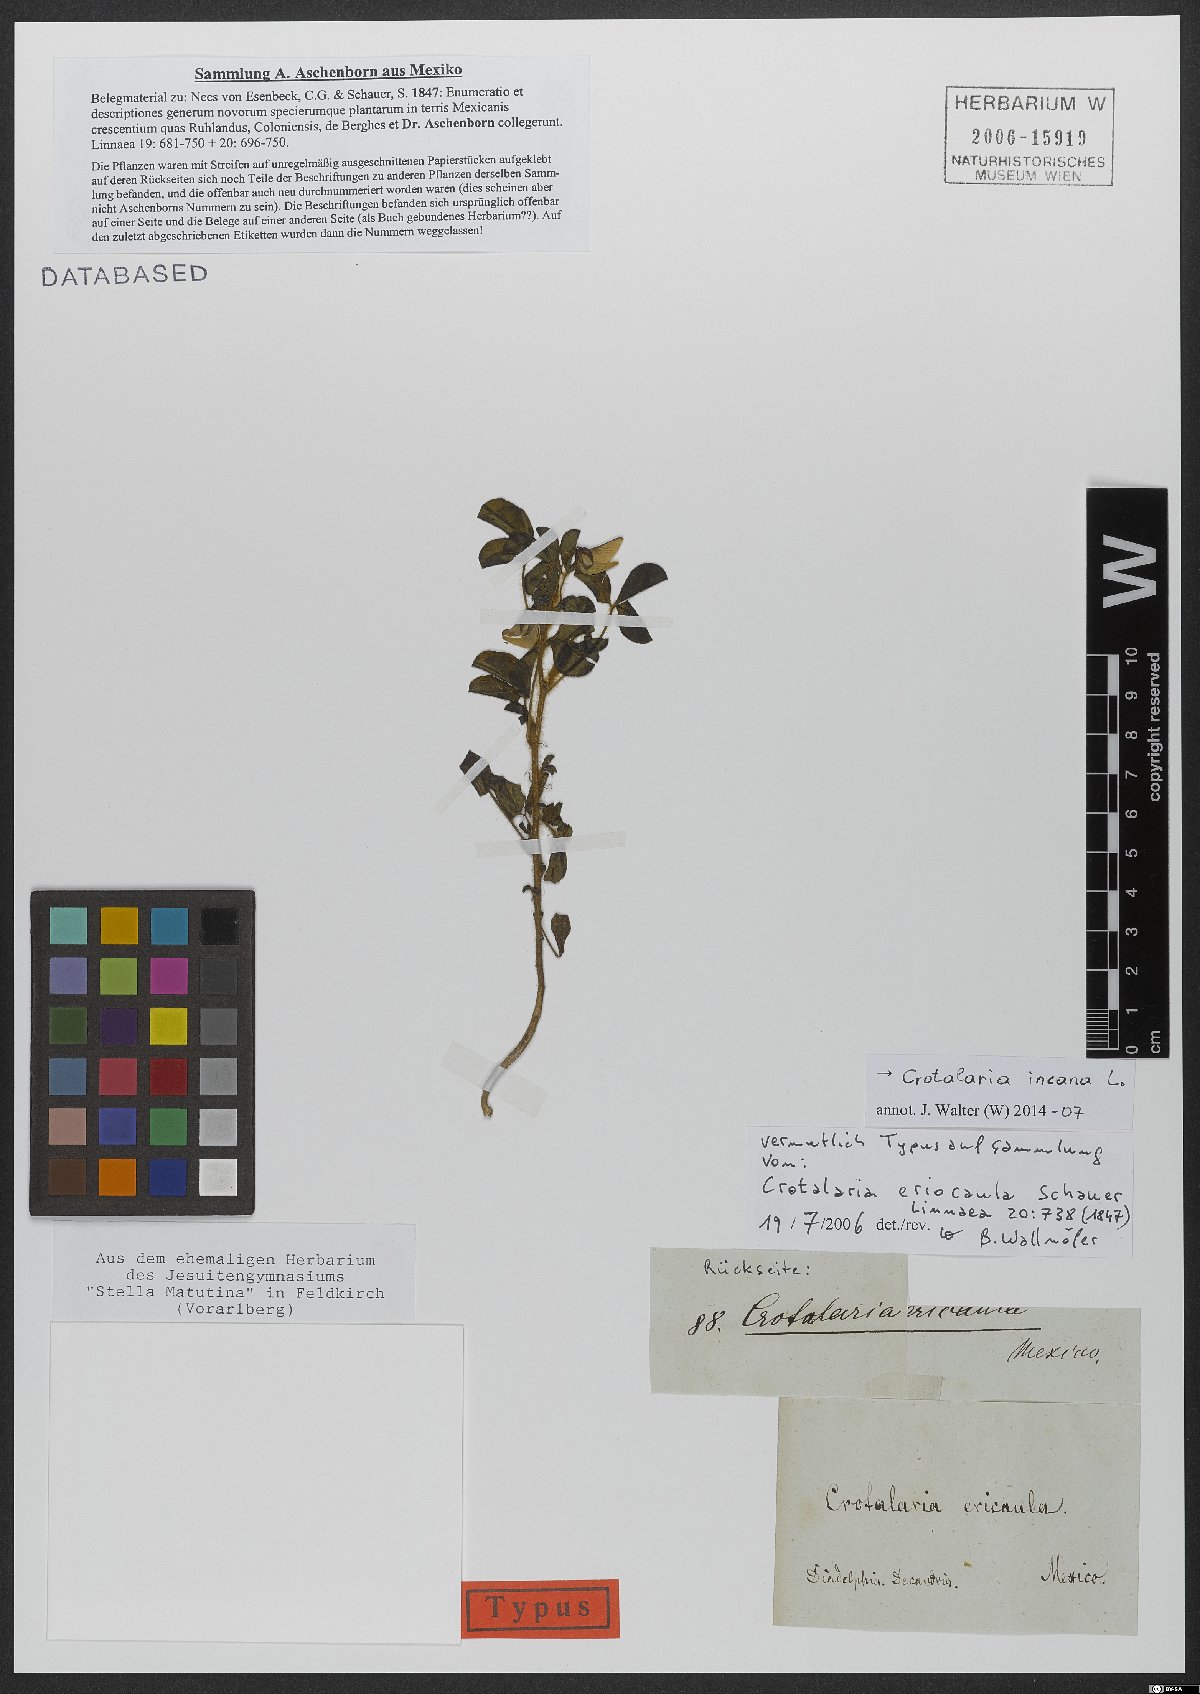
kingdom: Plantae
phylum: Tracheophyta
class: Magnoliopsida
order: Fabales
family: Fabaceae
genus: Crotalaria
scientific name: Crotalaria incana
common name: Shakeshake
